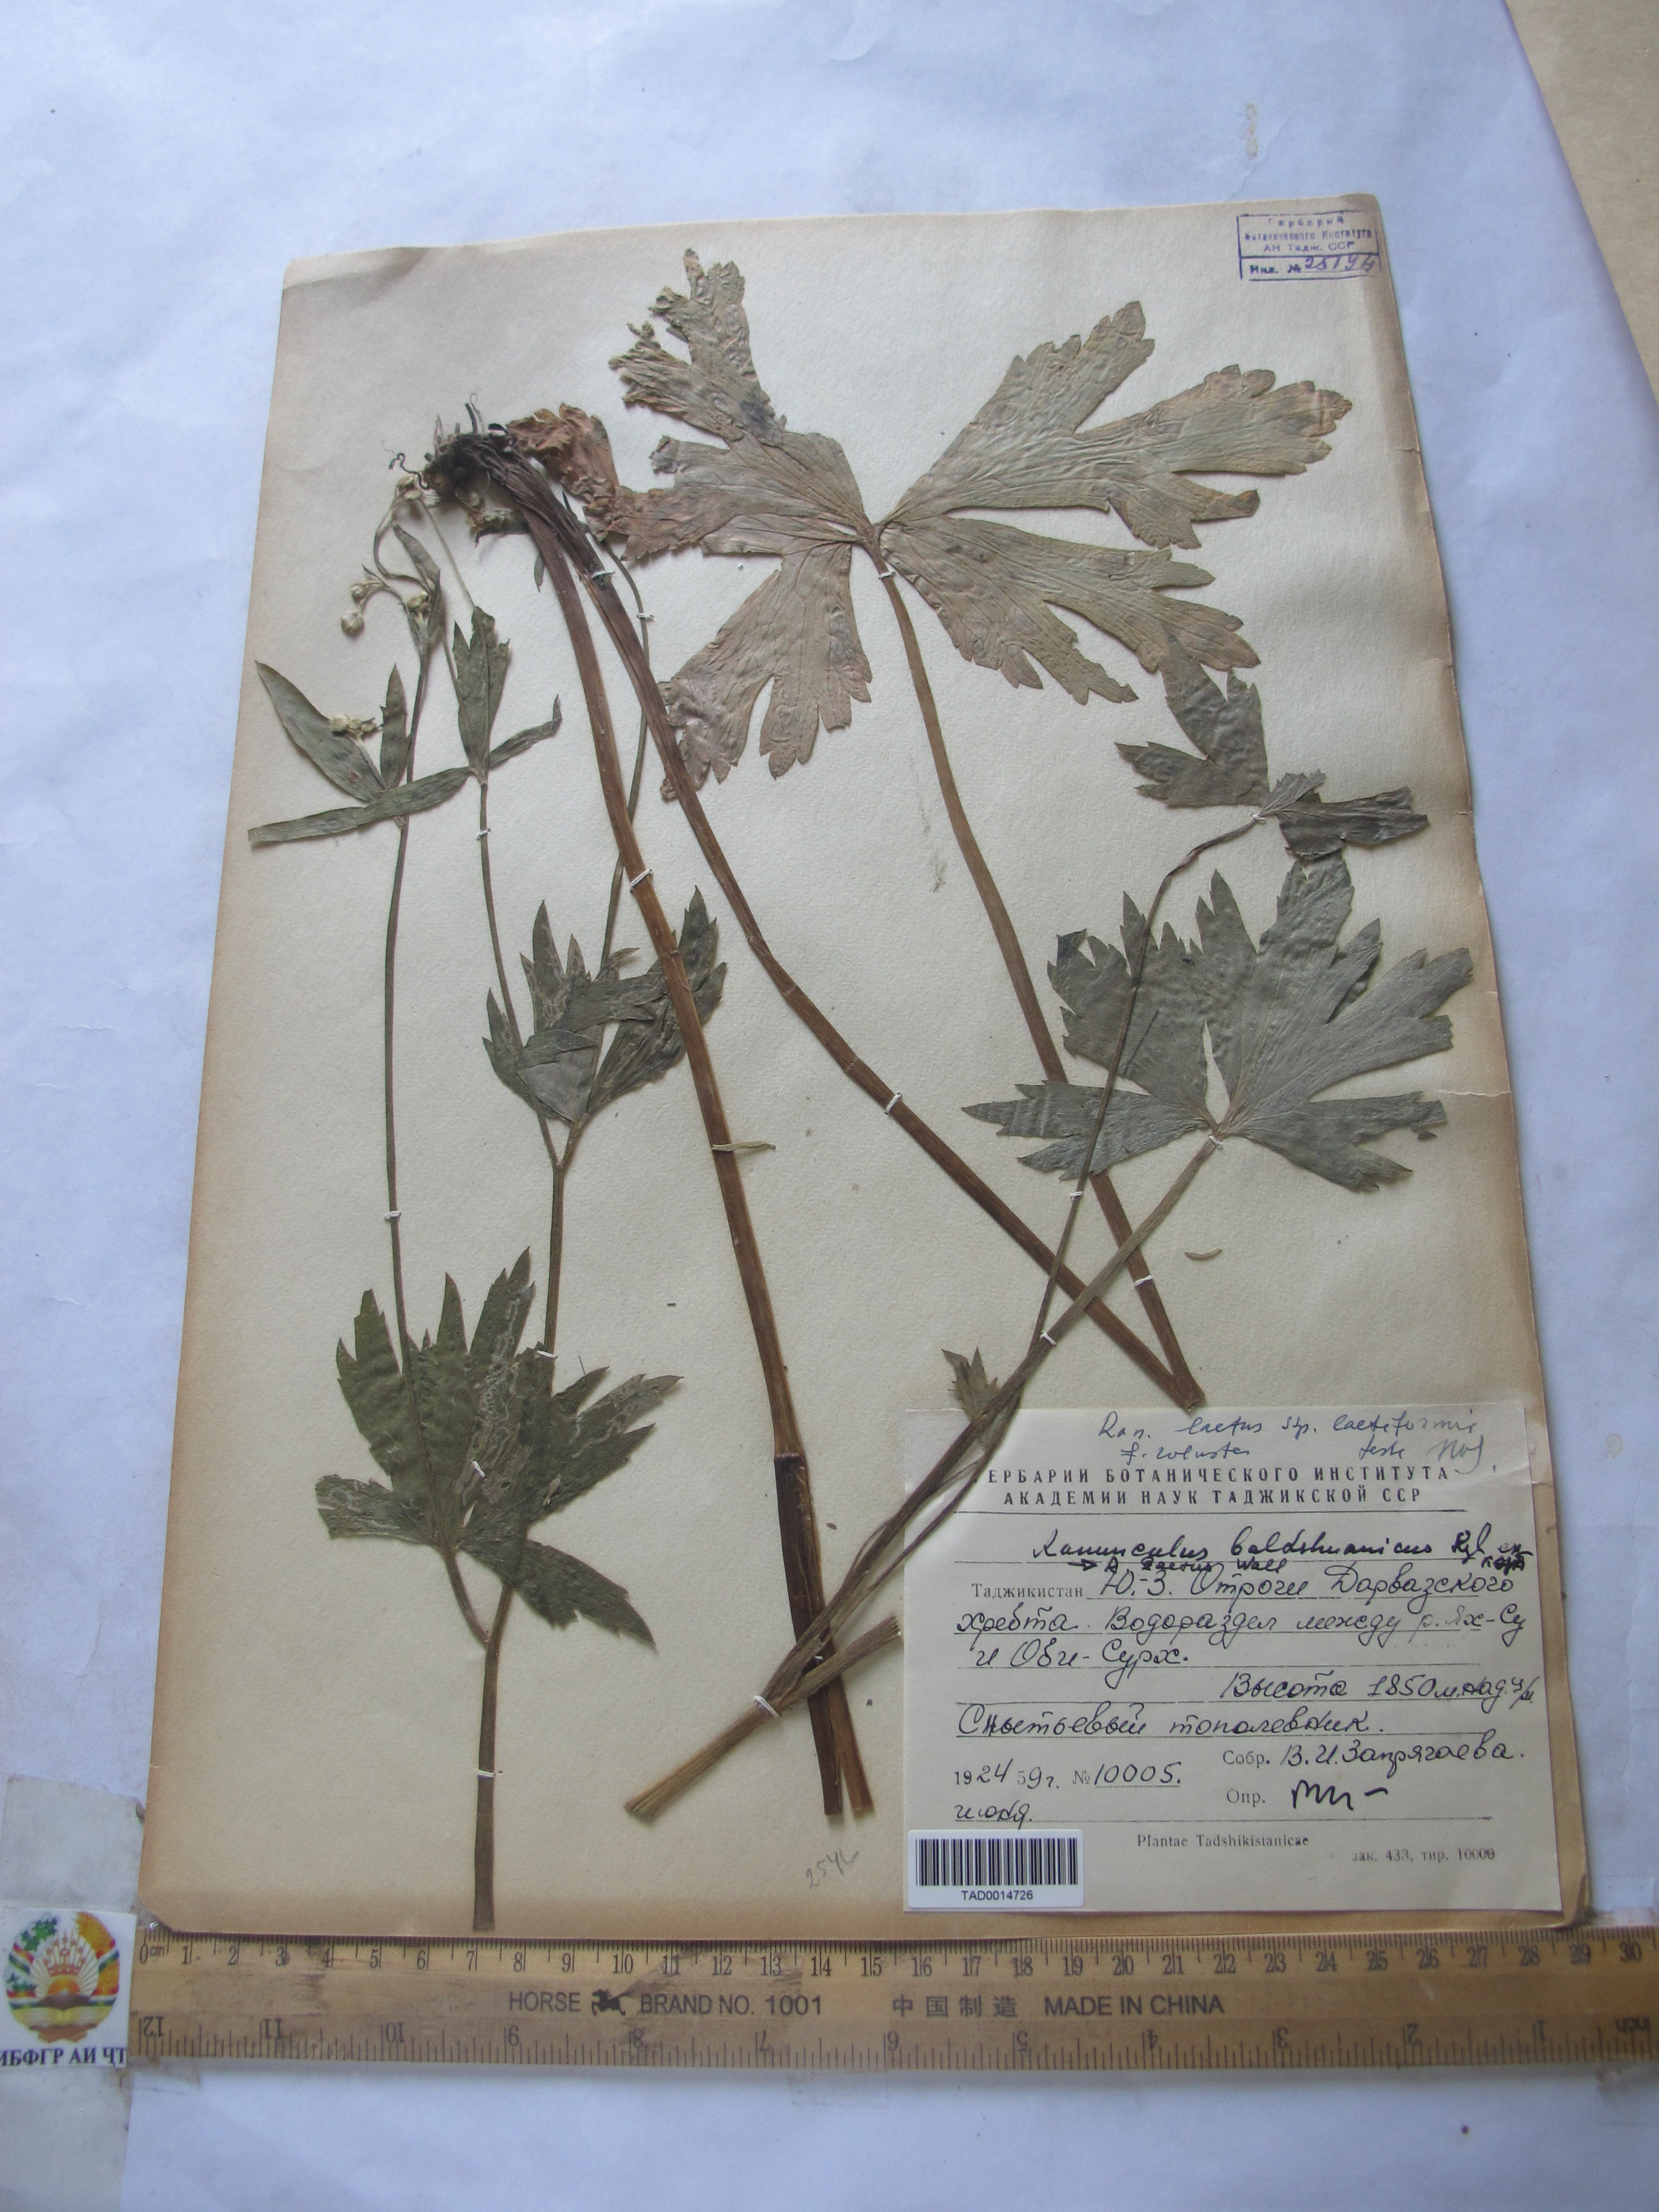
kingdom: Plantae
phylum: Tracheophyta
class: Magnoliopsida
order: Ranunculales
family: Ranunculaceae
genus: Ranunculus
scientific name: Ranunculus baldshuanicus
